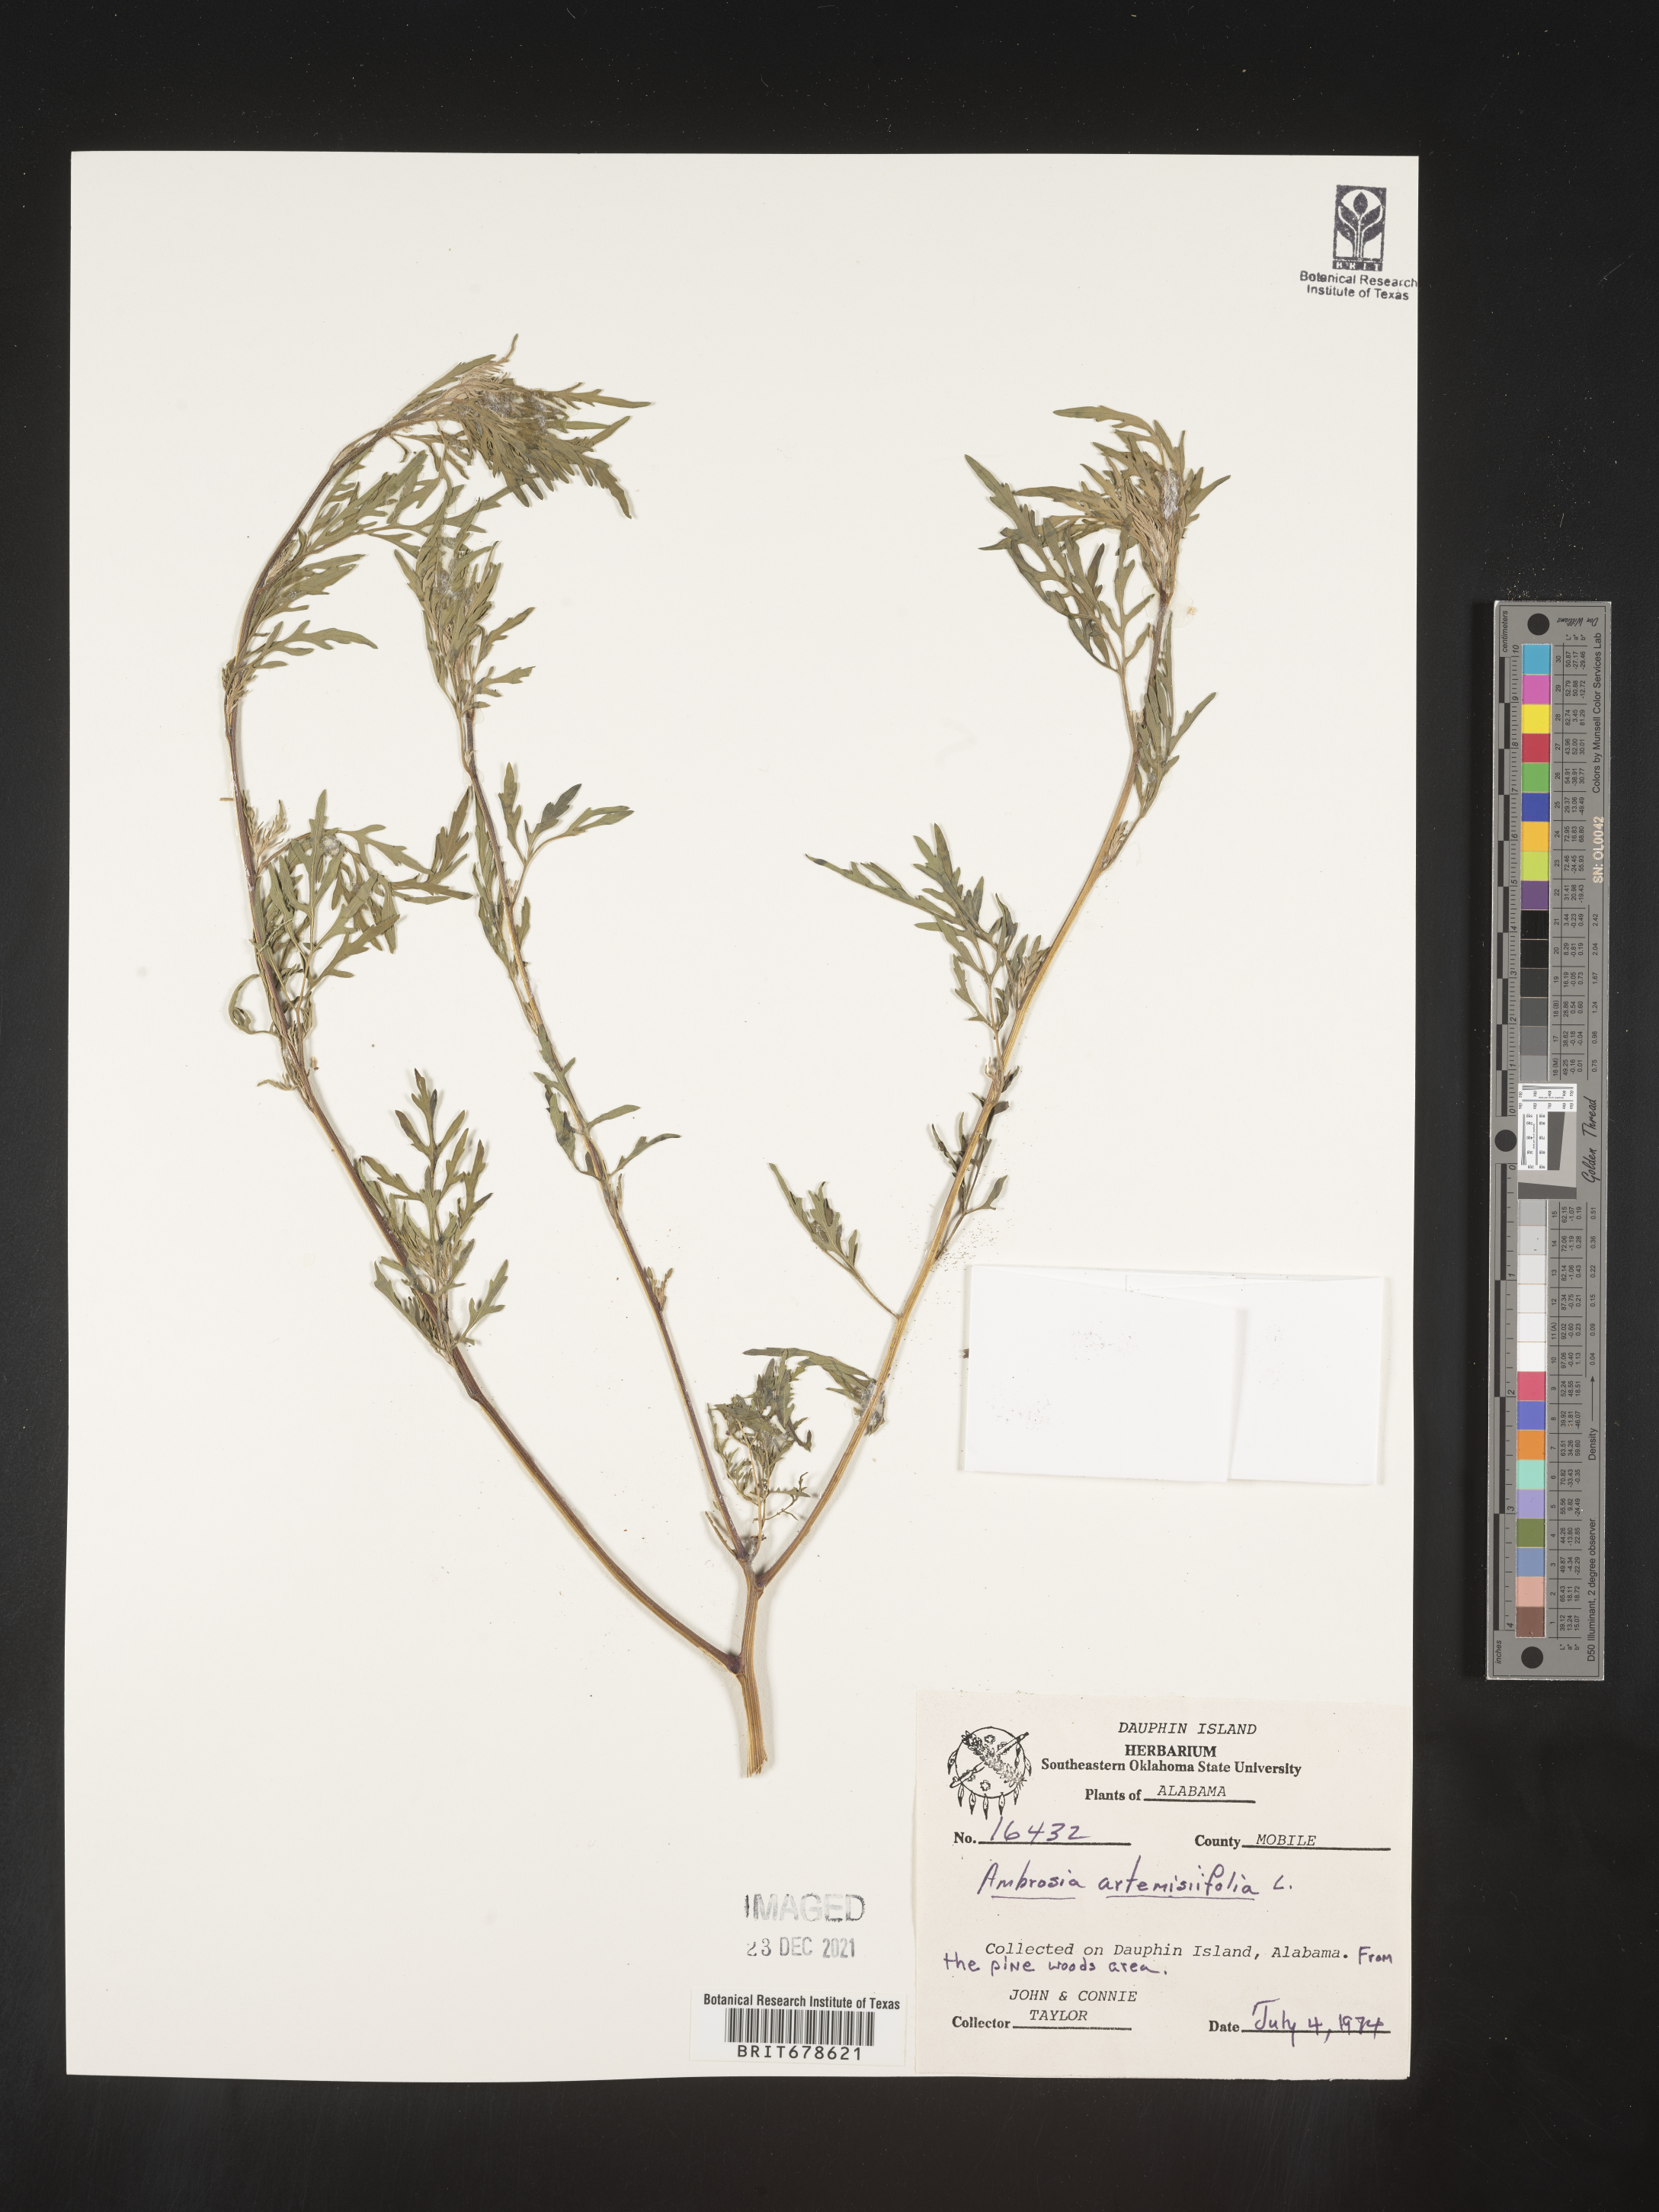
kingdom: Plantae
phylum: Tracheophyta
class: Magnoliopsida
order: Asterales
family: Asteraceae
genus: Ambrosia
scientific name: Ambrosia polystachya
